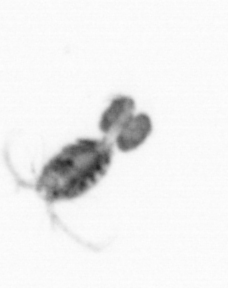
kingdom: Animalia
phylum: Arthropoda
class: Copepoda
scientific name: Copepoda
